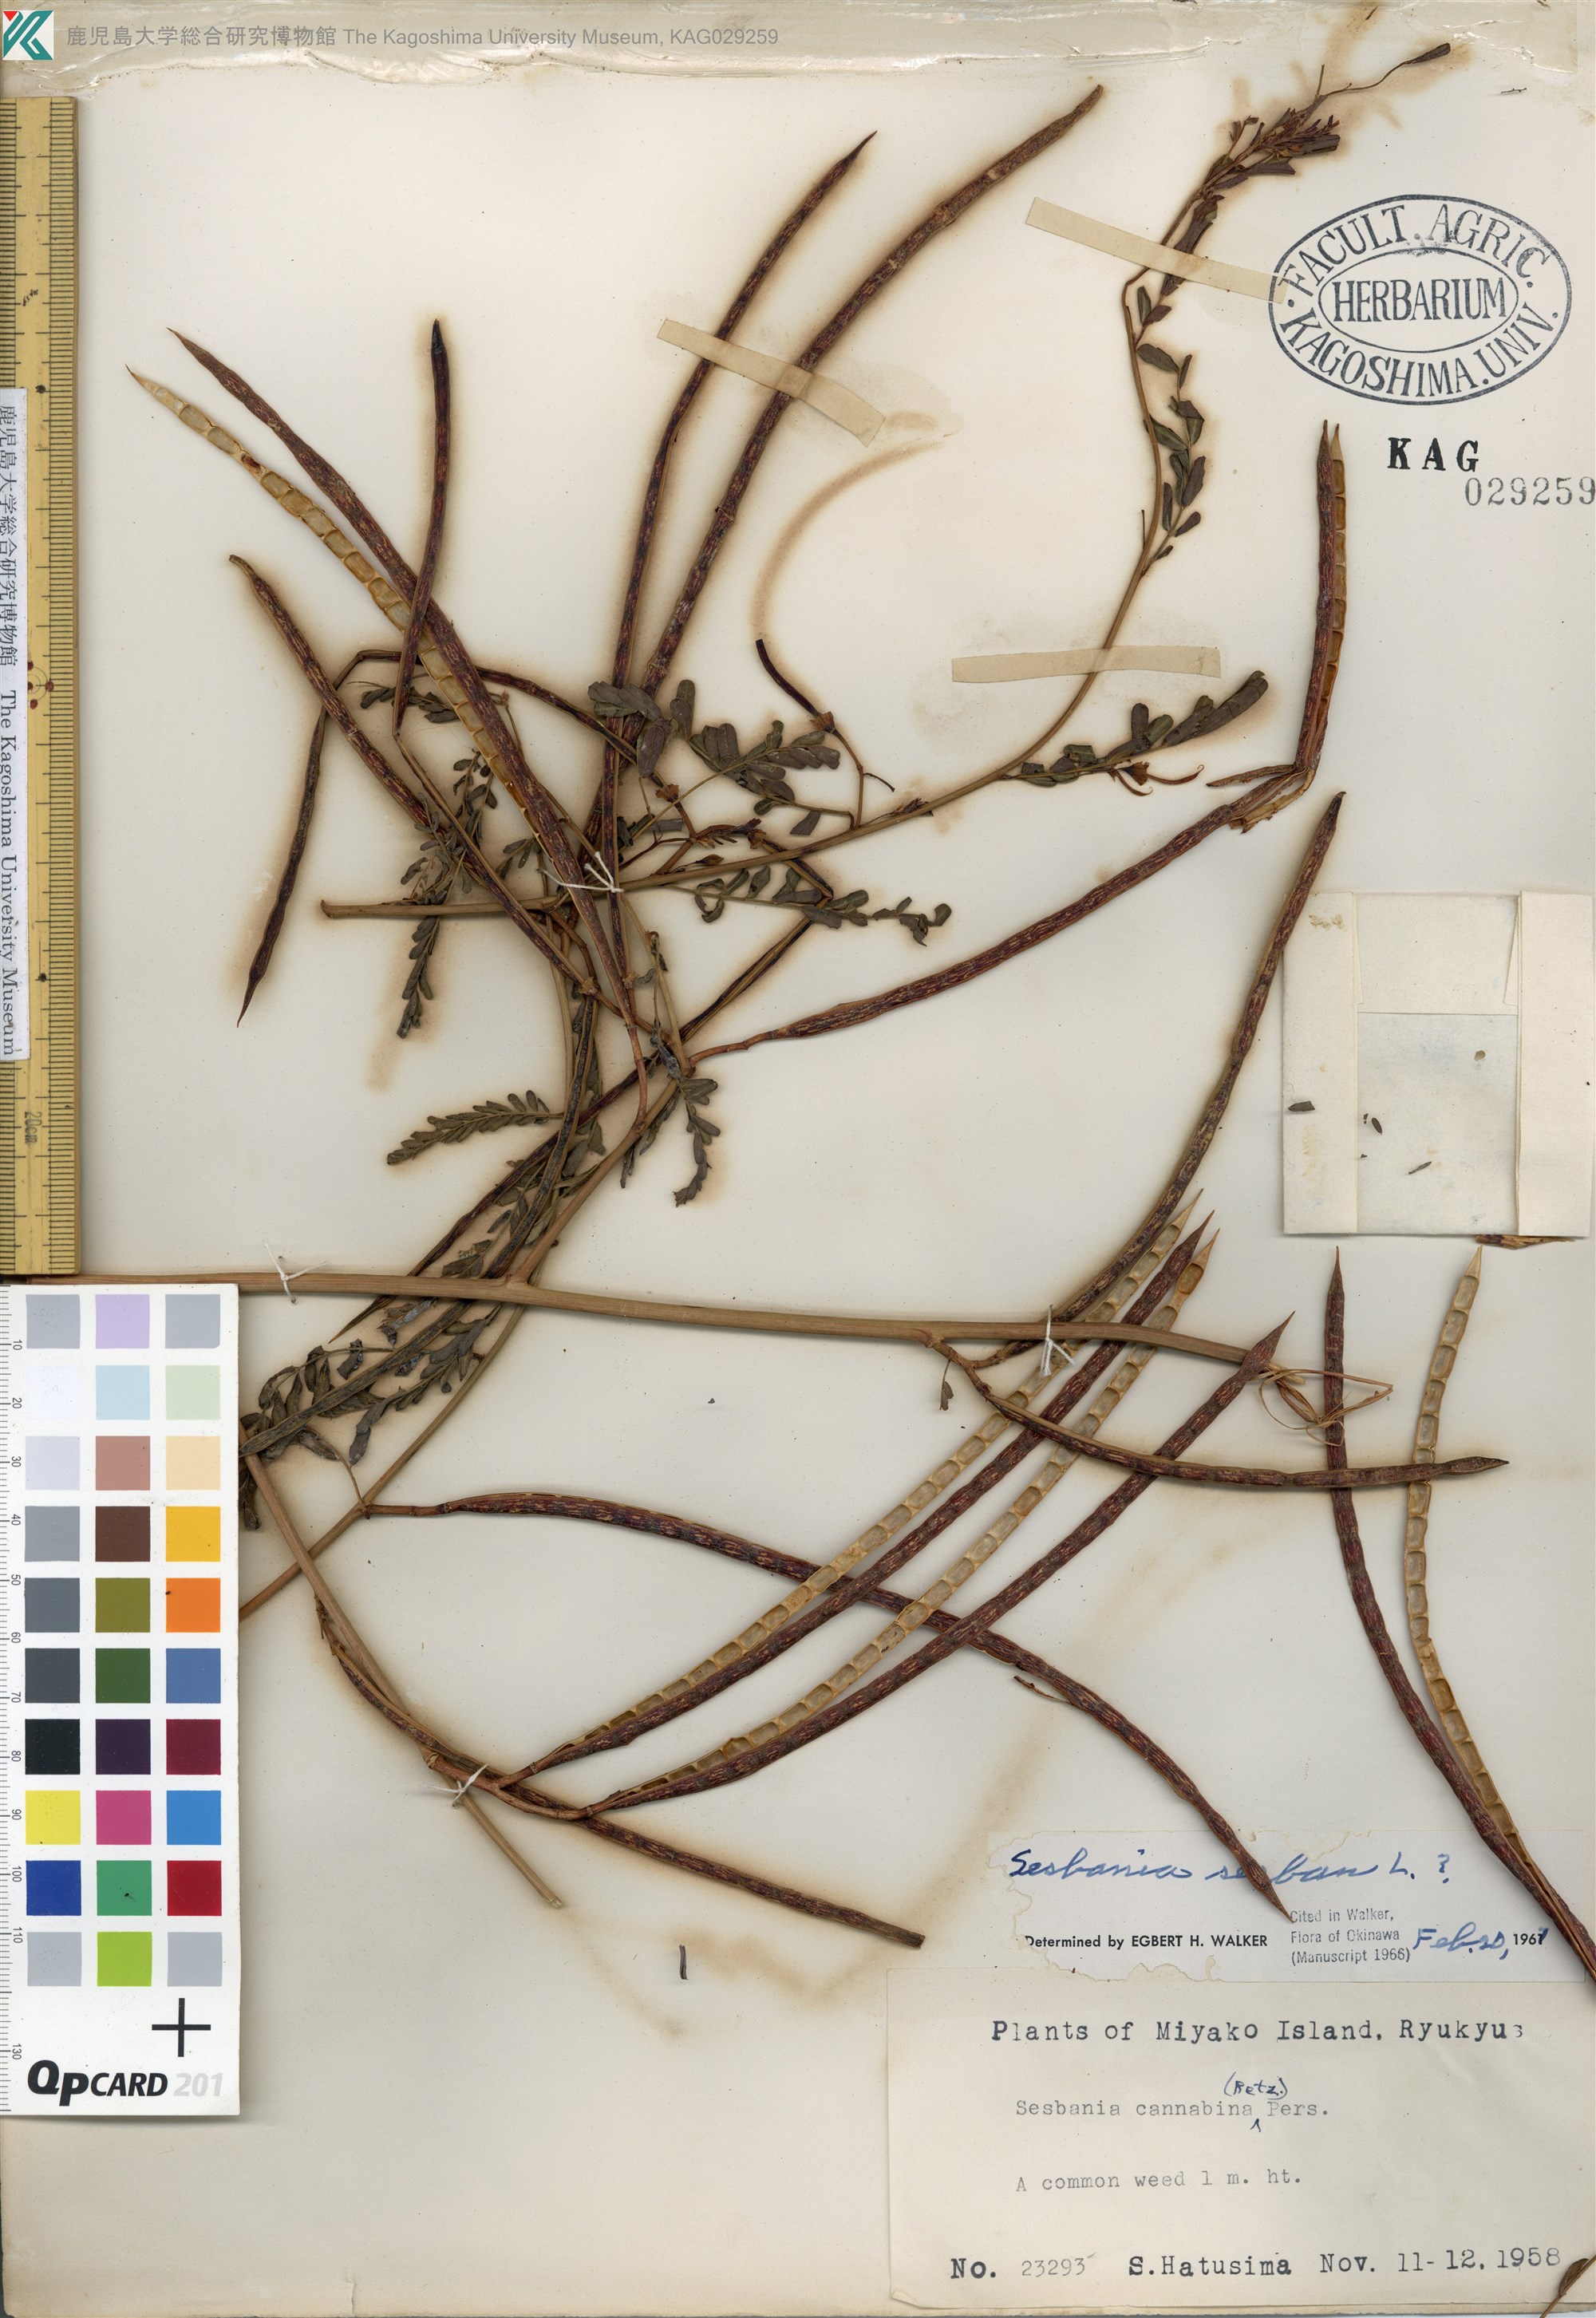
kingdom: Plantae
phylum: Tracheophyta
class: Magnoliopsida
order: Fabales
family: Fabaceae
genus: Sesbania
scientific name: Sesbania cannabina
